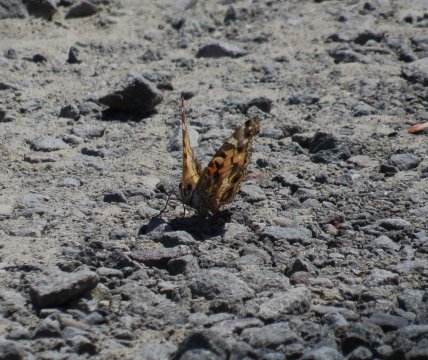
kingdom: Animalia
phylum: Arthropoda
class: Insecta
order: Lepidoptera
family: Nymphalidae
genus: Vanessa
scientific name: Vanessa virginiensis
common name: American Lady
